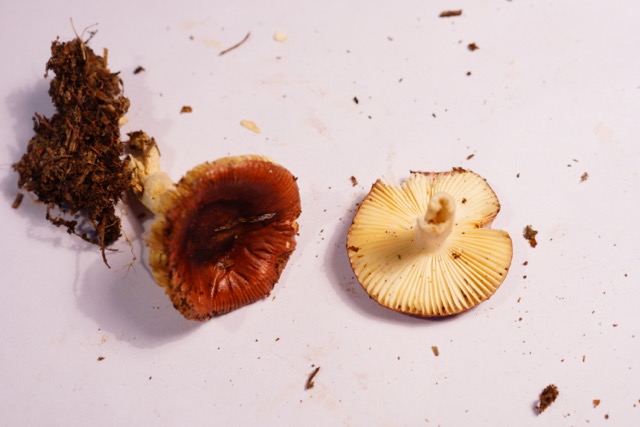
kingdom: Fungi
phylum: Basidiomycota
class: Agaricomycetes
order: Russulales
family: Russulaceae
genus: Russula
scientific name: Russula nitida
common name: året skørhat
